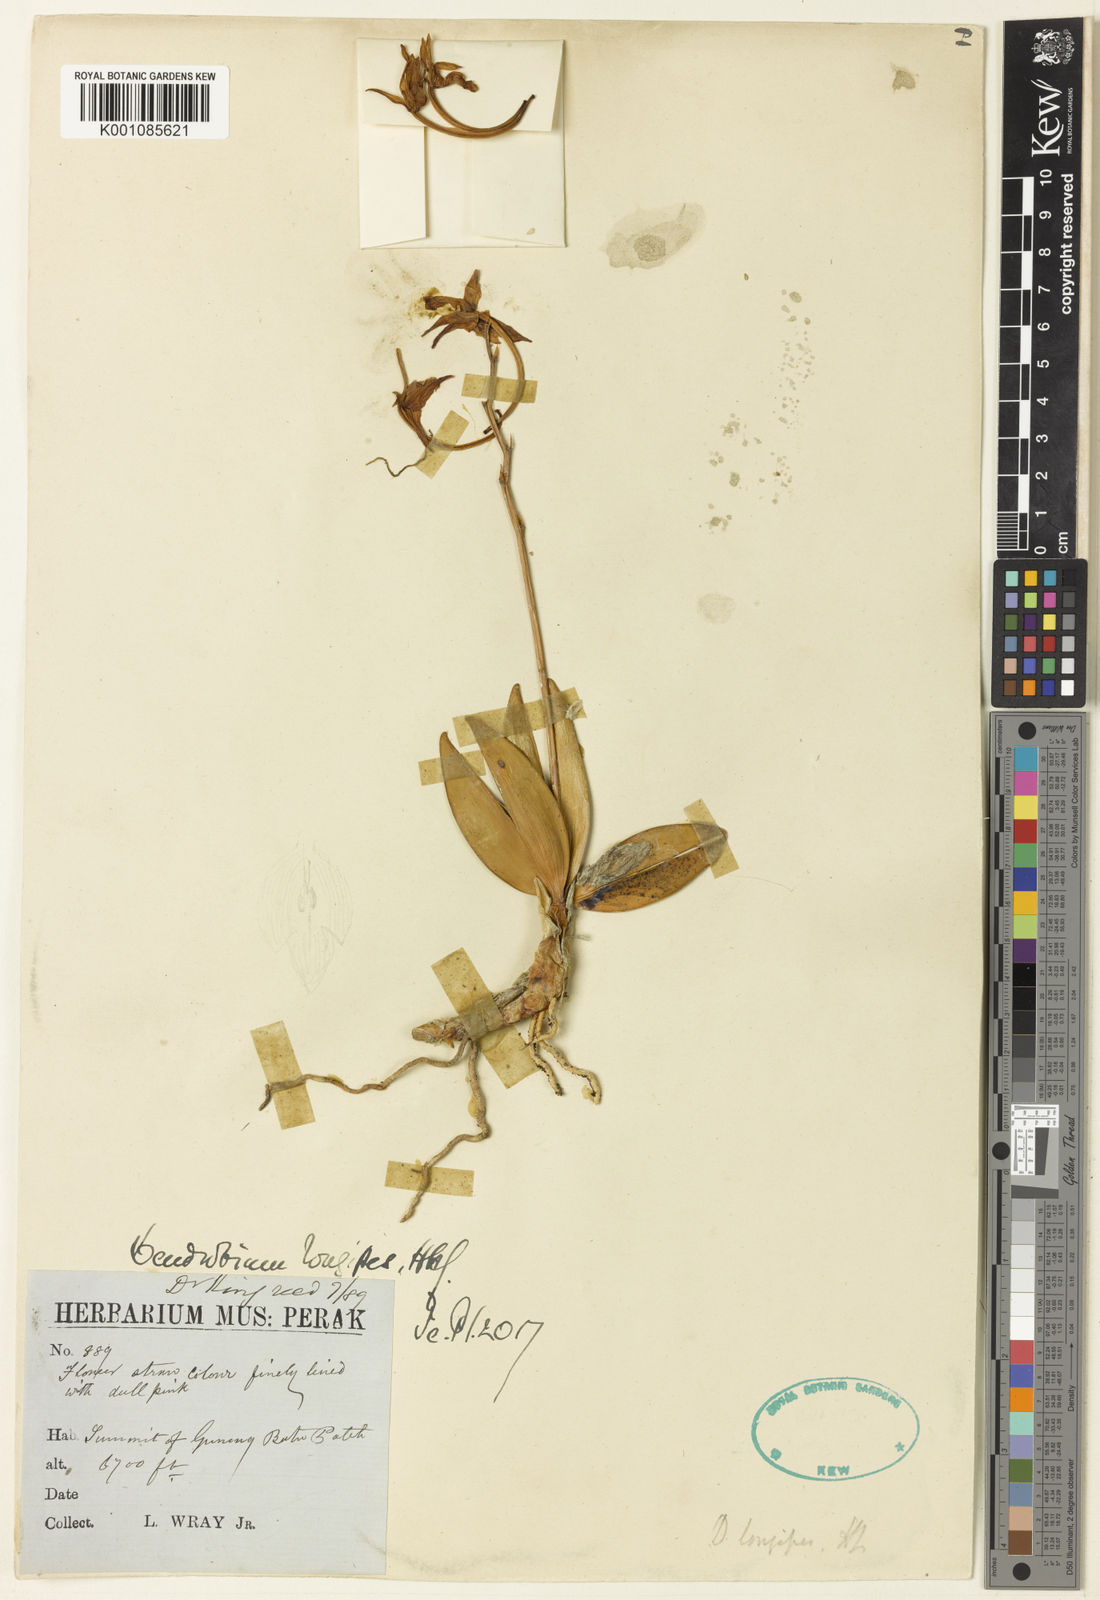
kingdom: Plantae
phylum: Tracheophyta
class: Liliopsida
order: Asparagales
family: Orchidaceae
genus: Dendrobium
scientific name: Dendrobium longipes
